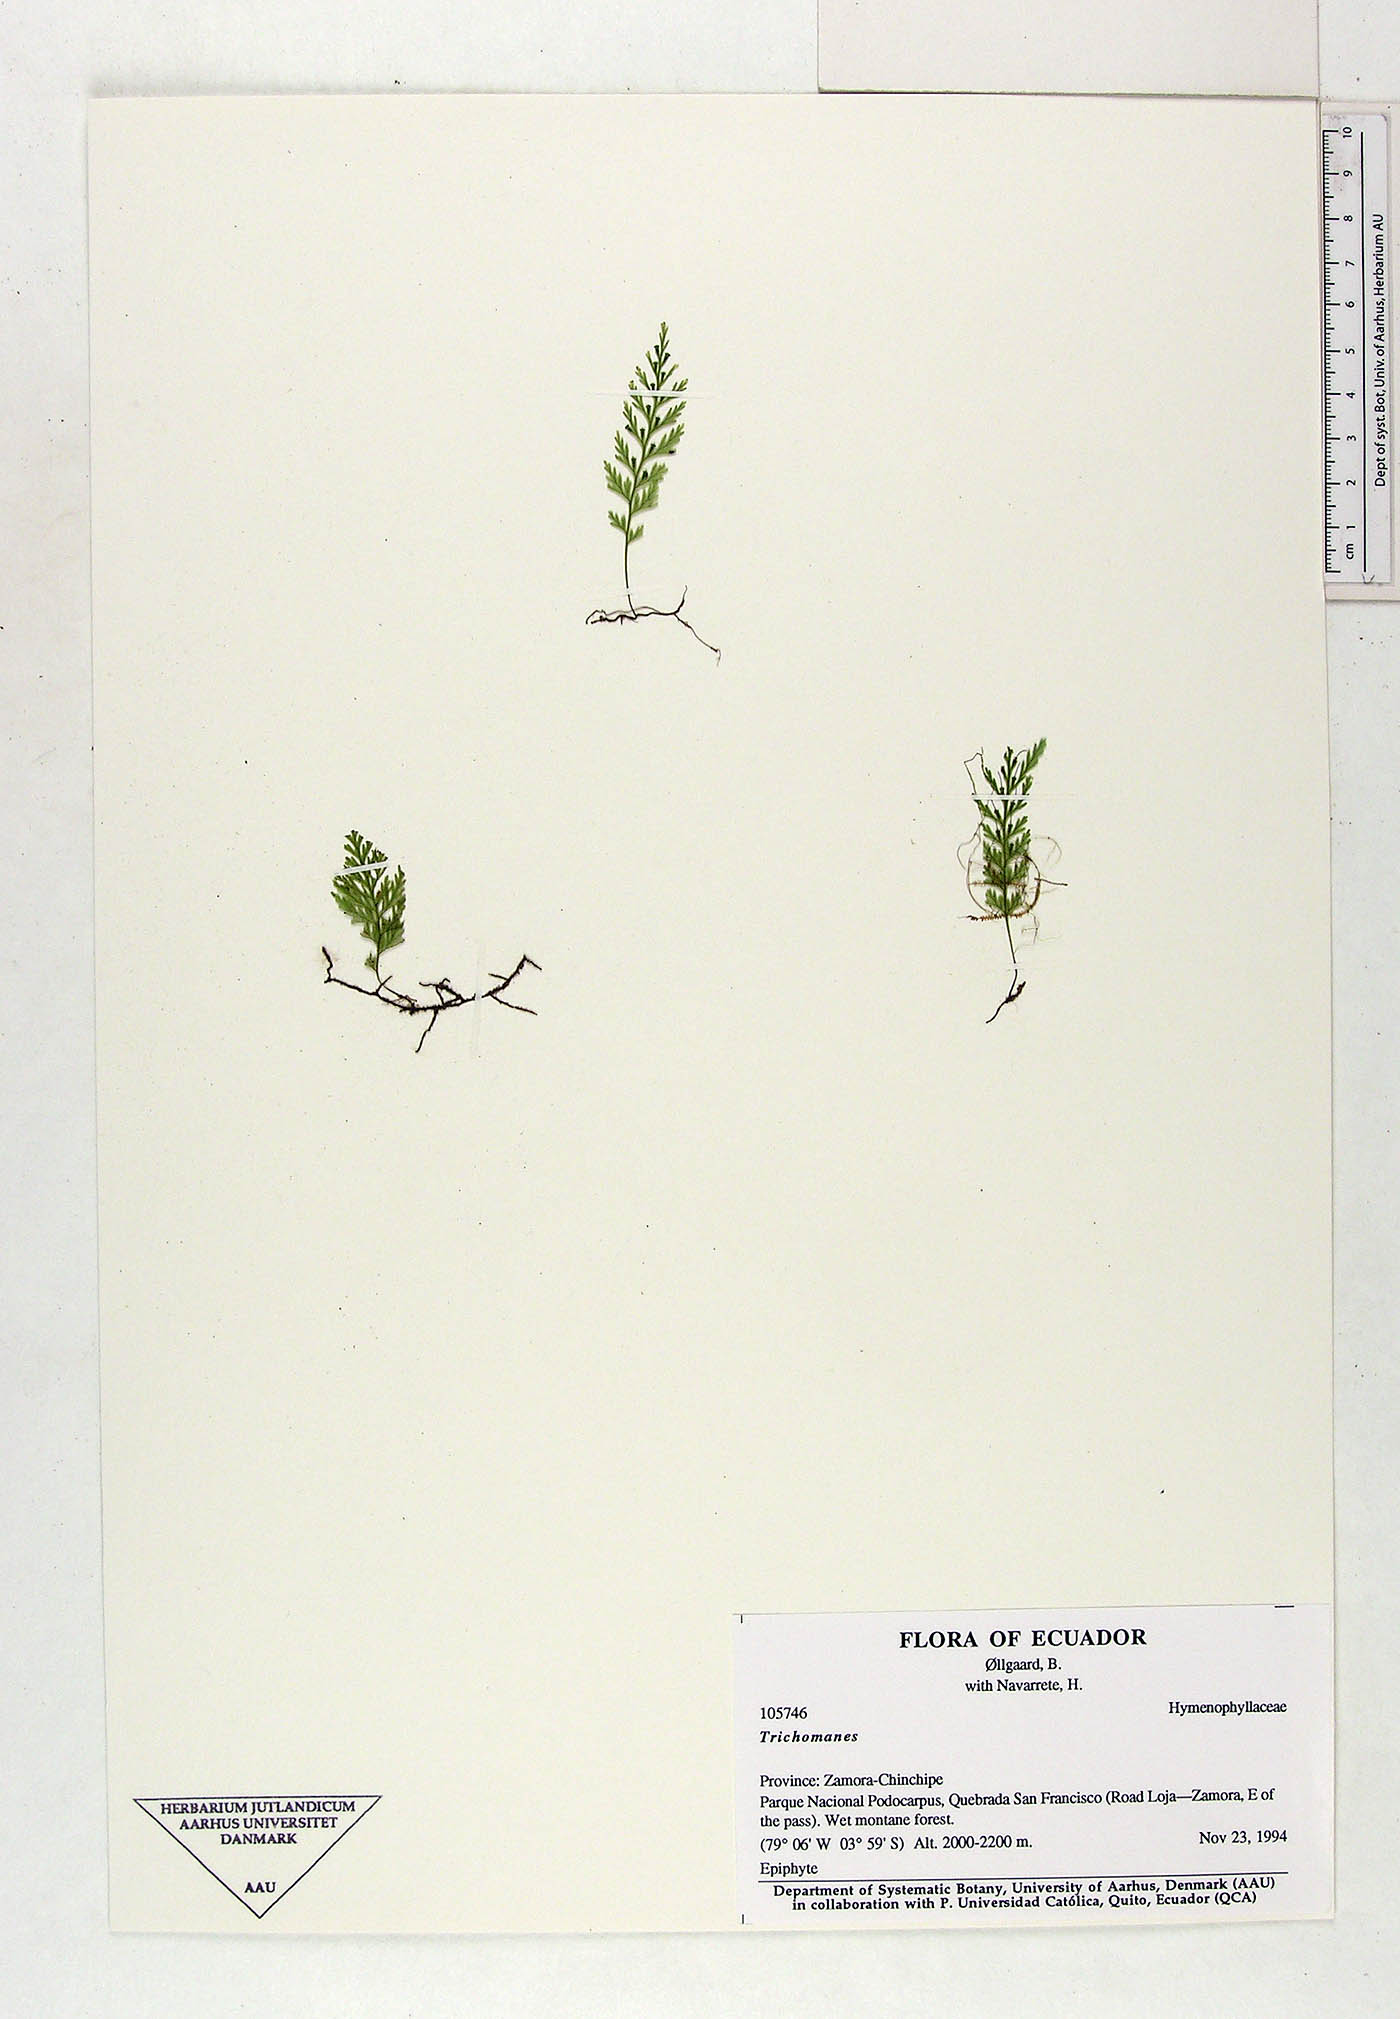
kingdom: Plantae
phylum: Tracheophyta
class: Polypodiopsida
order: Hymenophyllales
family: Hymenophyllaceae
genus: Trichomanes
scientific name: Trichomanes
